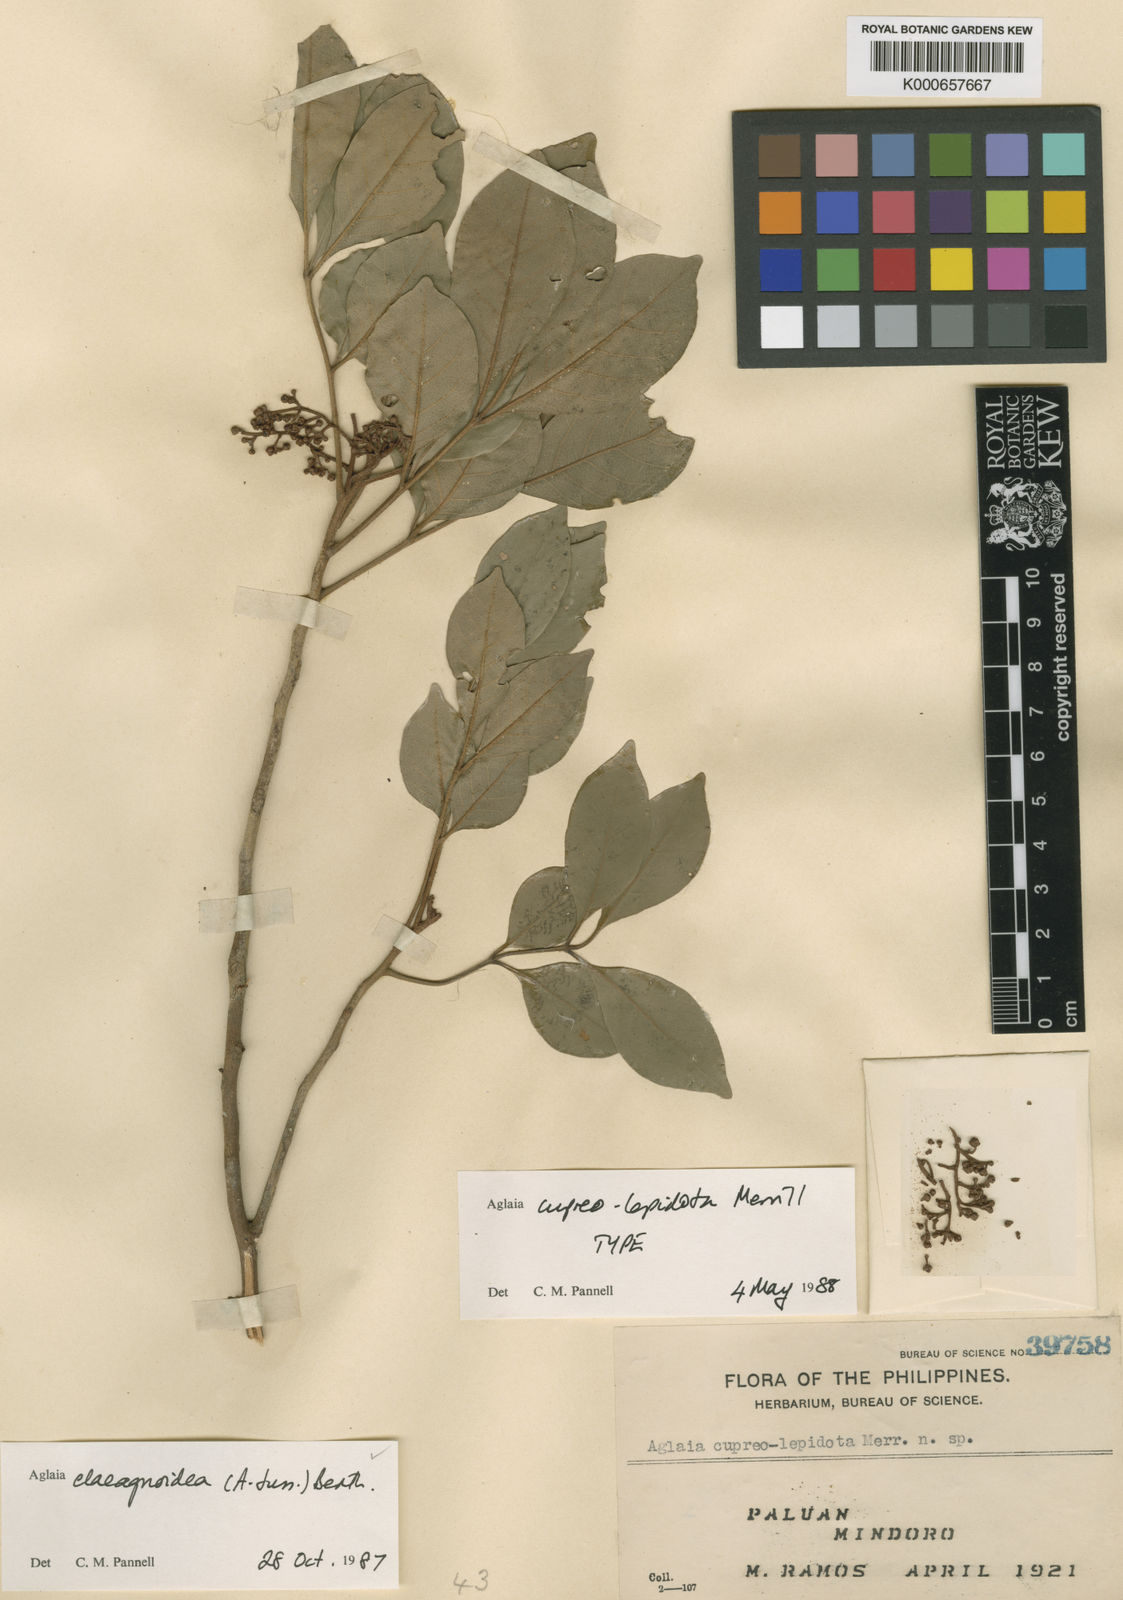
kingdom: Plantae
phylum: Tracheophyta
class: Magnoliopsida
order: Sapindales
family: Meliaceae
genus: Aglaia
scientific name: Aglaia elaeagnoidea
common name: Droopyleaf
